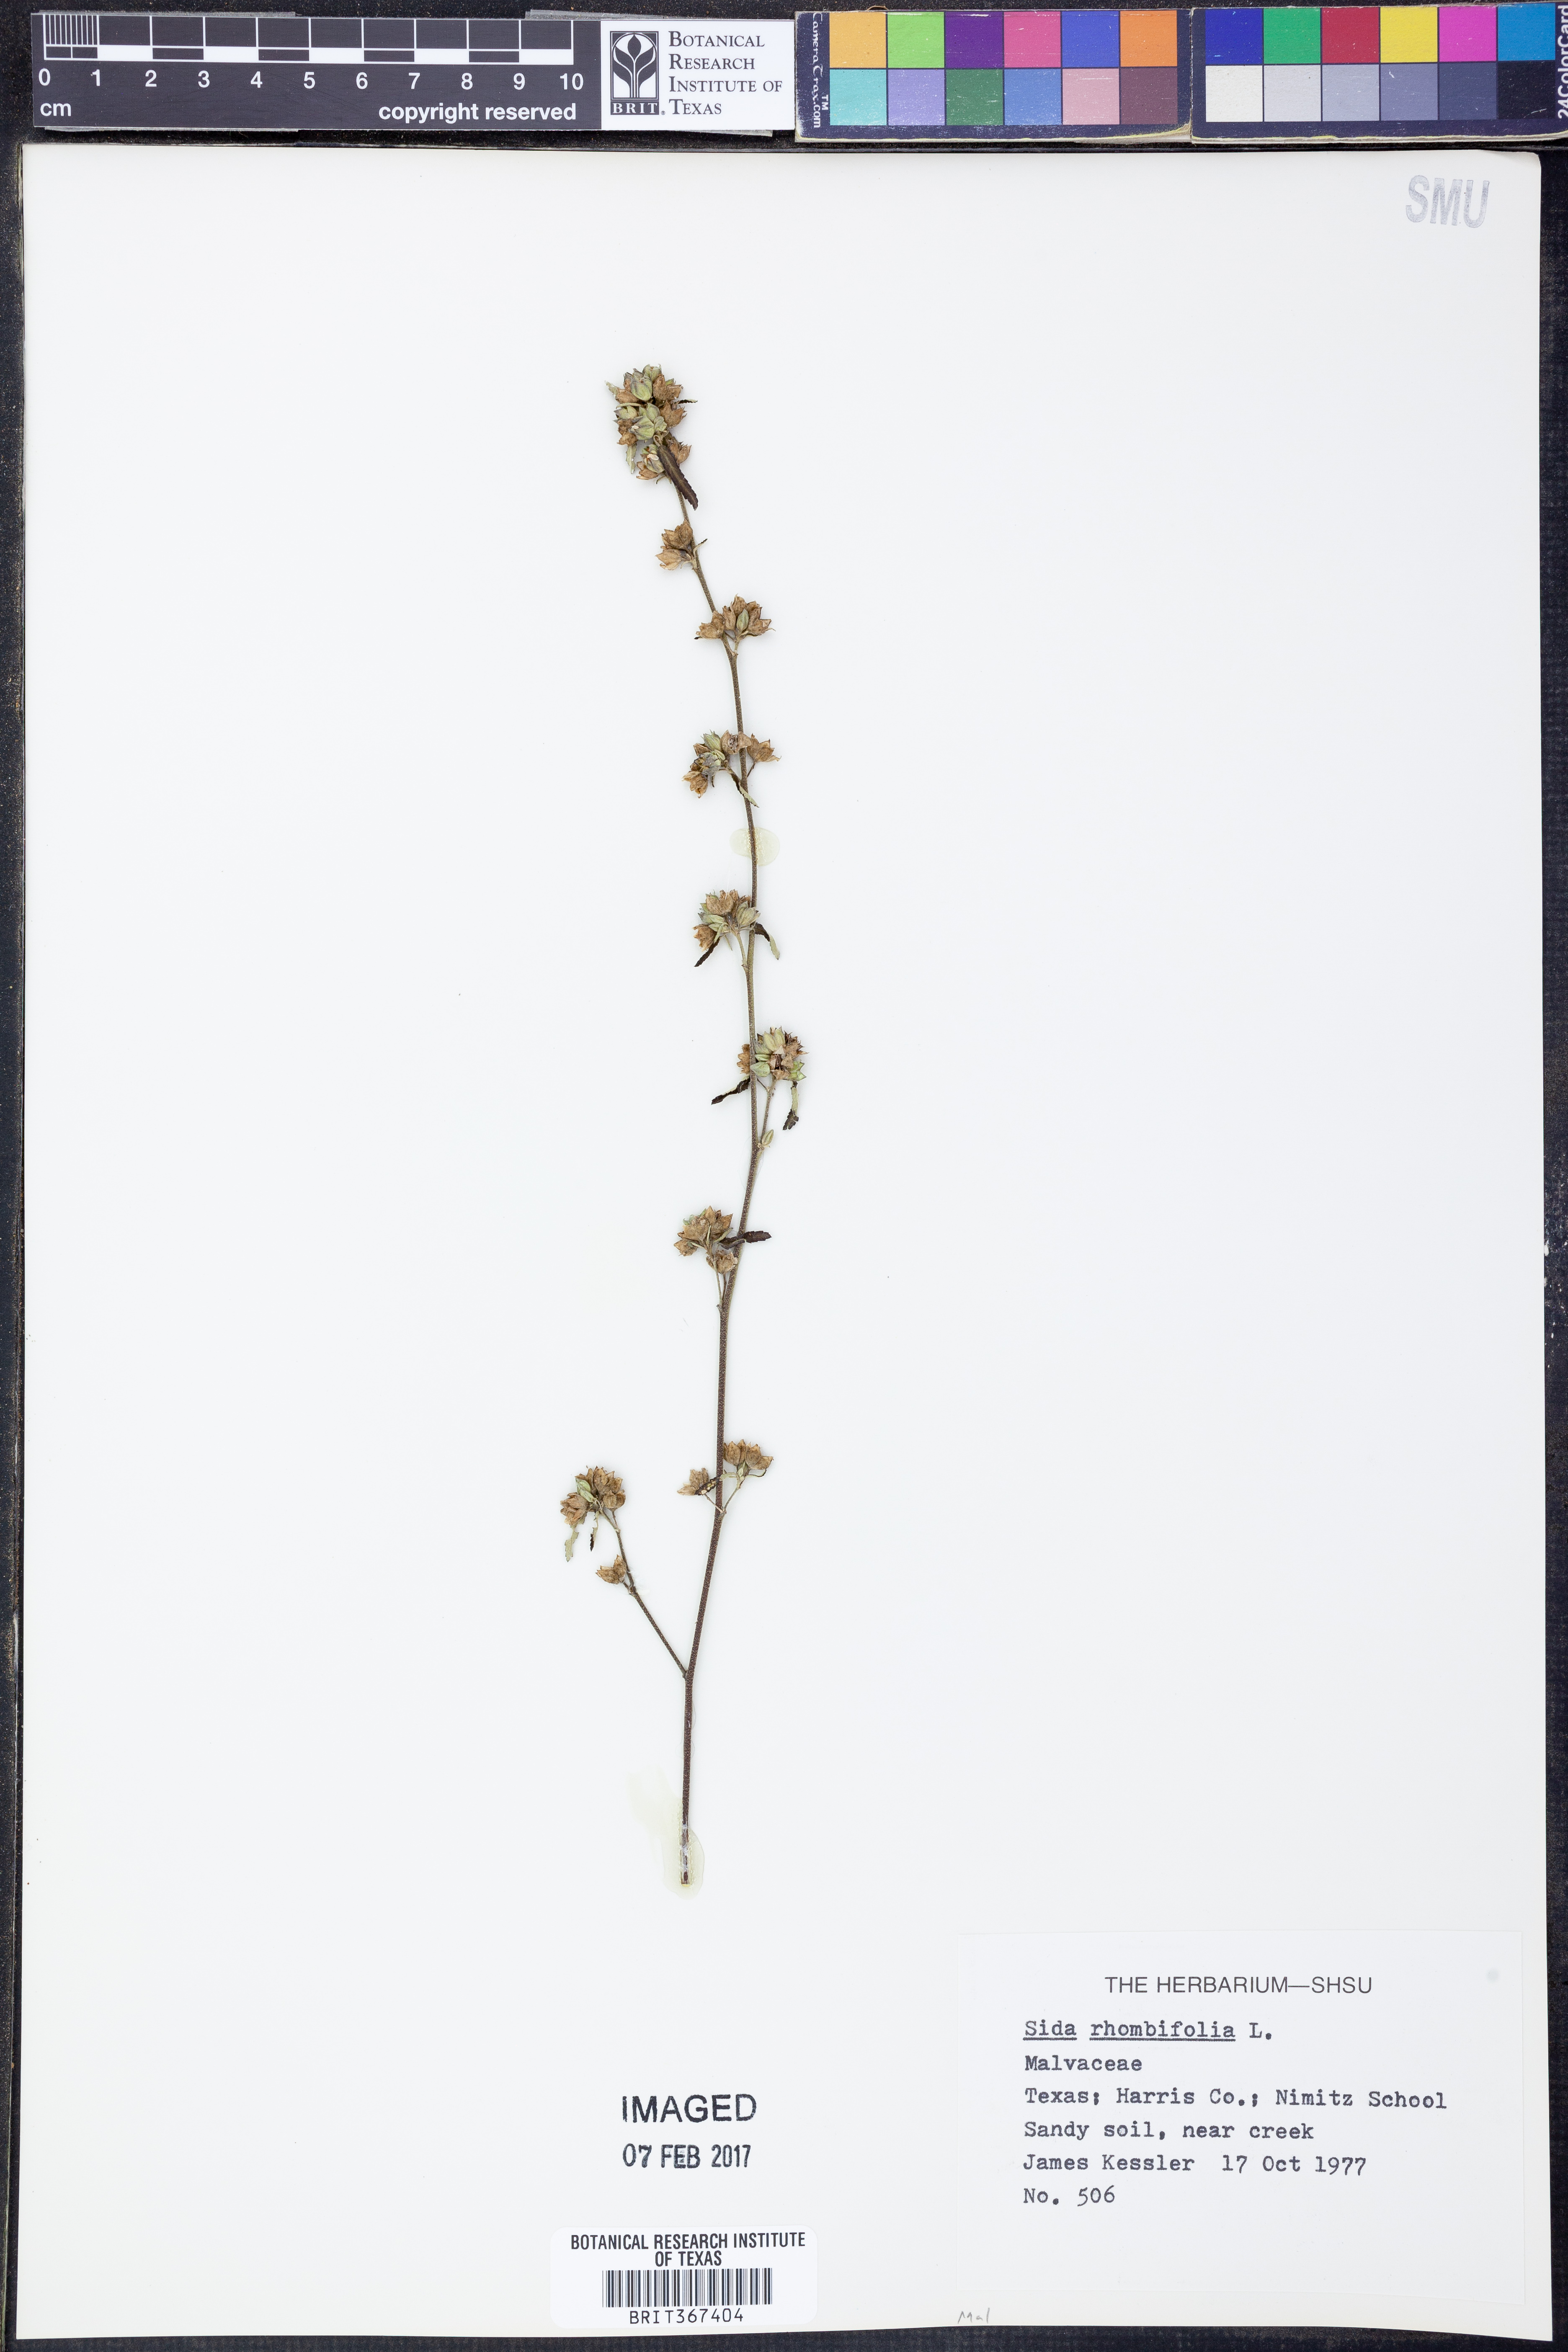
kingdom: Plantae
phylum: Tracheophyta
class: Magnoliopsida
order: Malvales
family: Malvaceae
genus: Sida
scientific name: Sida rhombifolia
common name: Queensland-hemp
